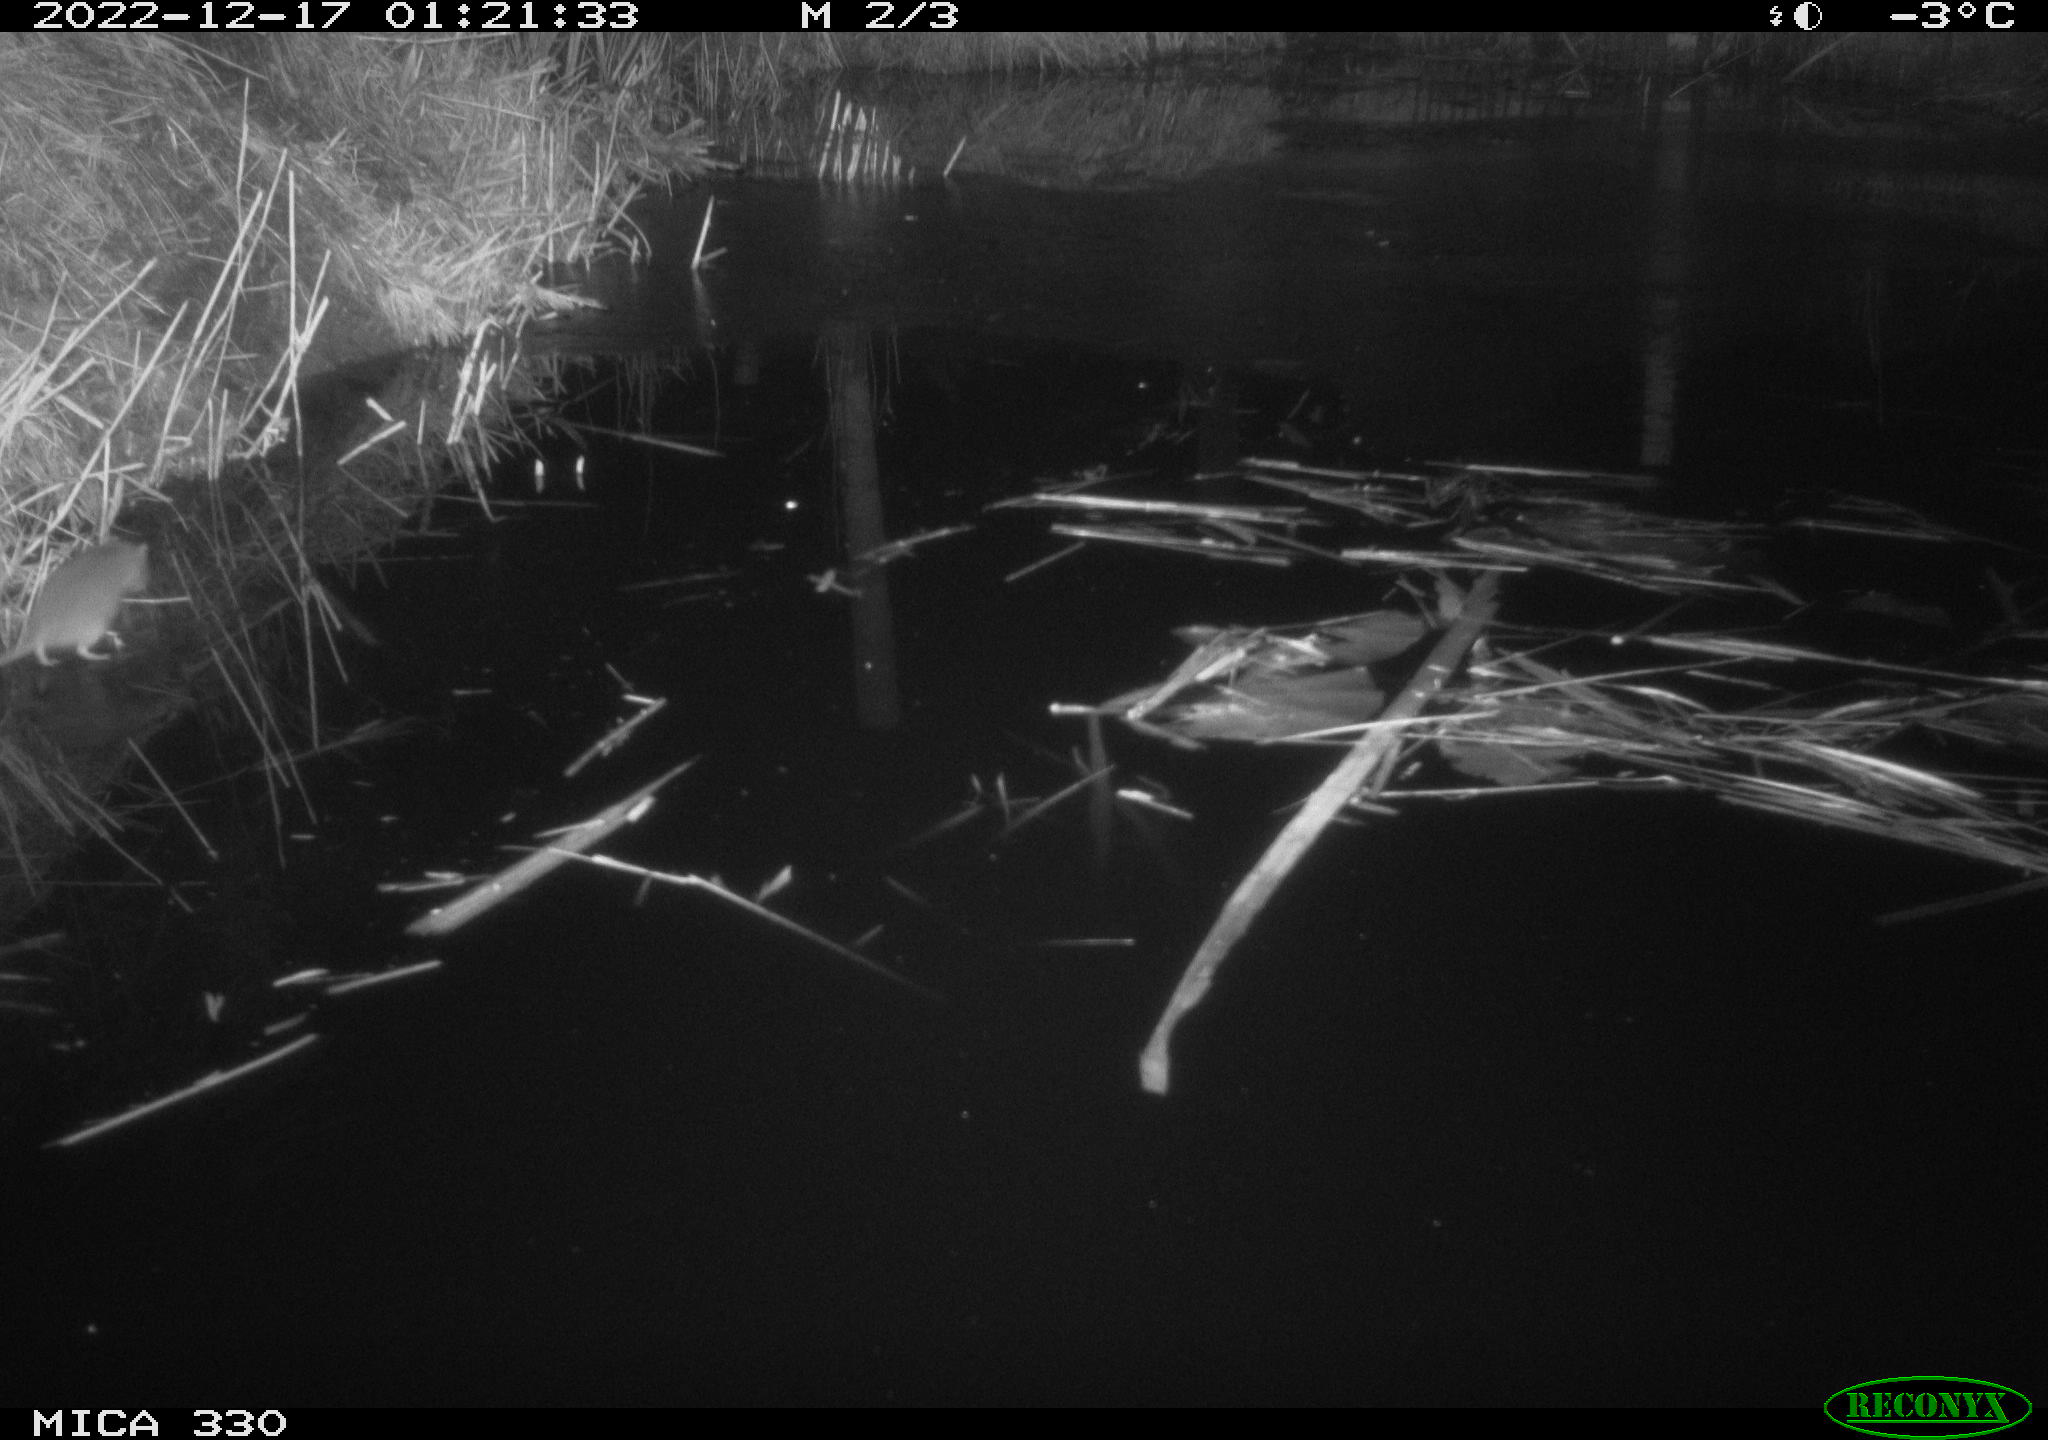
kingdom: Animalia
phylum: Chordata
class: Mammalia
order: Rodentia
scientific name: Rodentia
